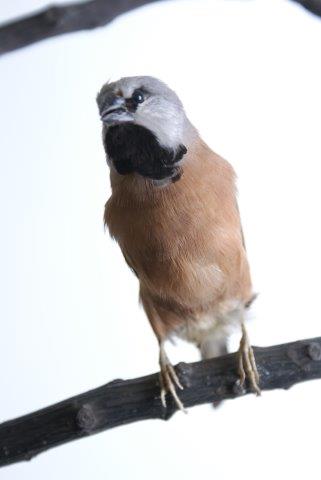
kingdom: Animalia
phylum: Chordata
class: Aves
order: Passeriformes
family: Estrildidae
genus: Poephila
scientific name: Poephila cincta
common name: Black-throated finch
